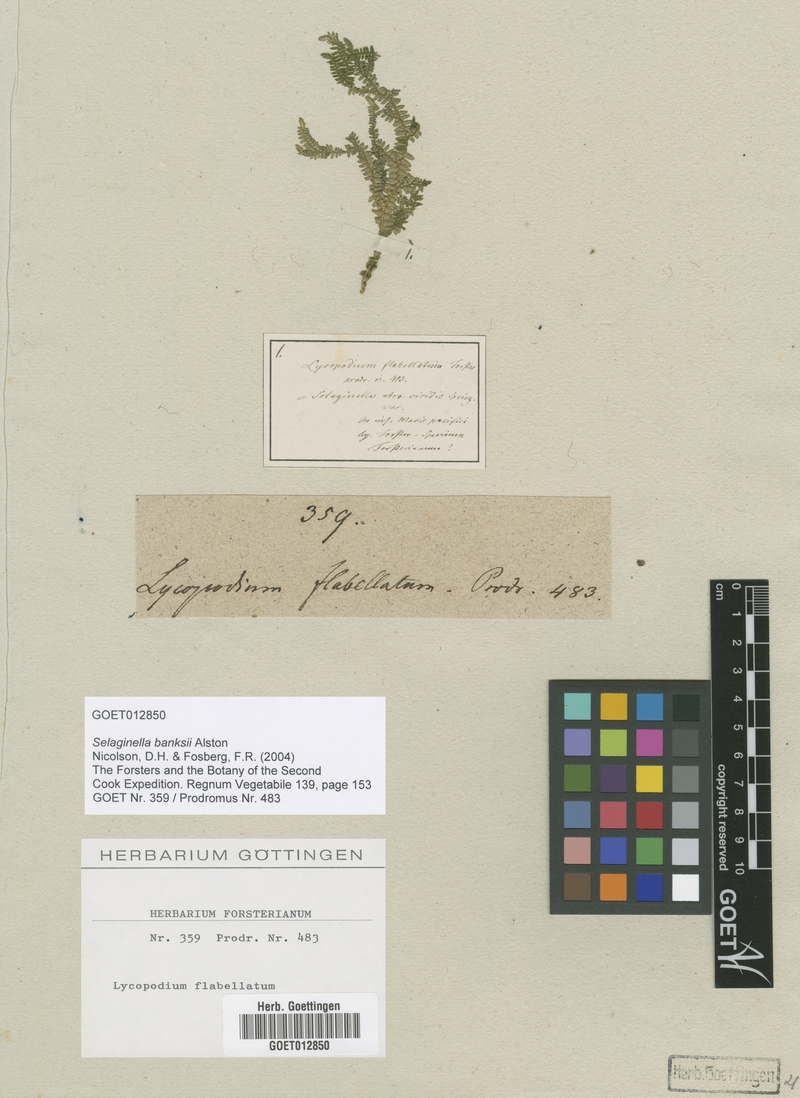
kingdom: Plantae
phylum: Tracheophyta
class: Lycopodiopsida
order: Selaginellales
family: Selaginellaceae
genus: Selaginella
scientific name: Selaginella banksii
